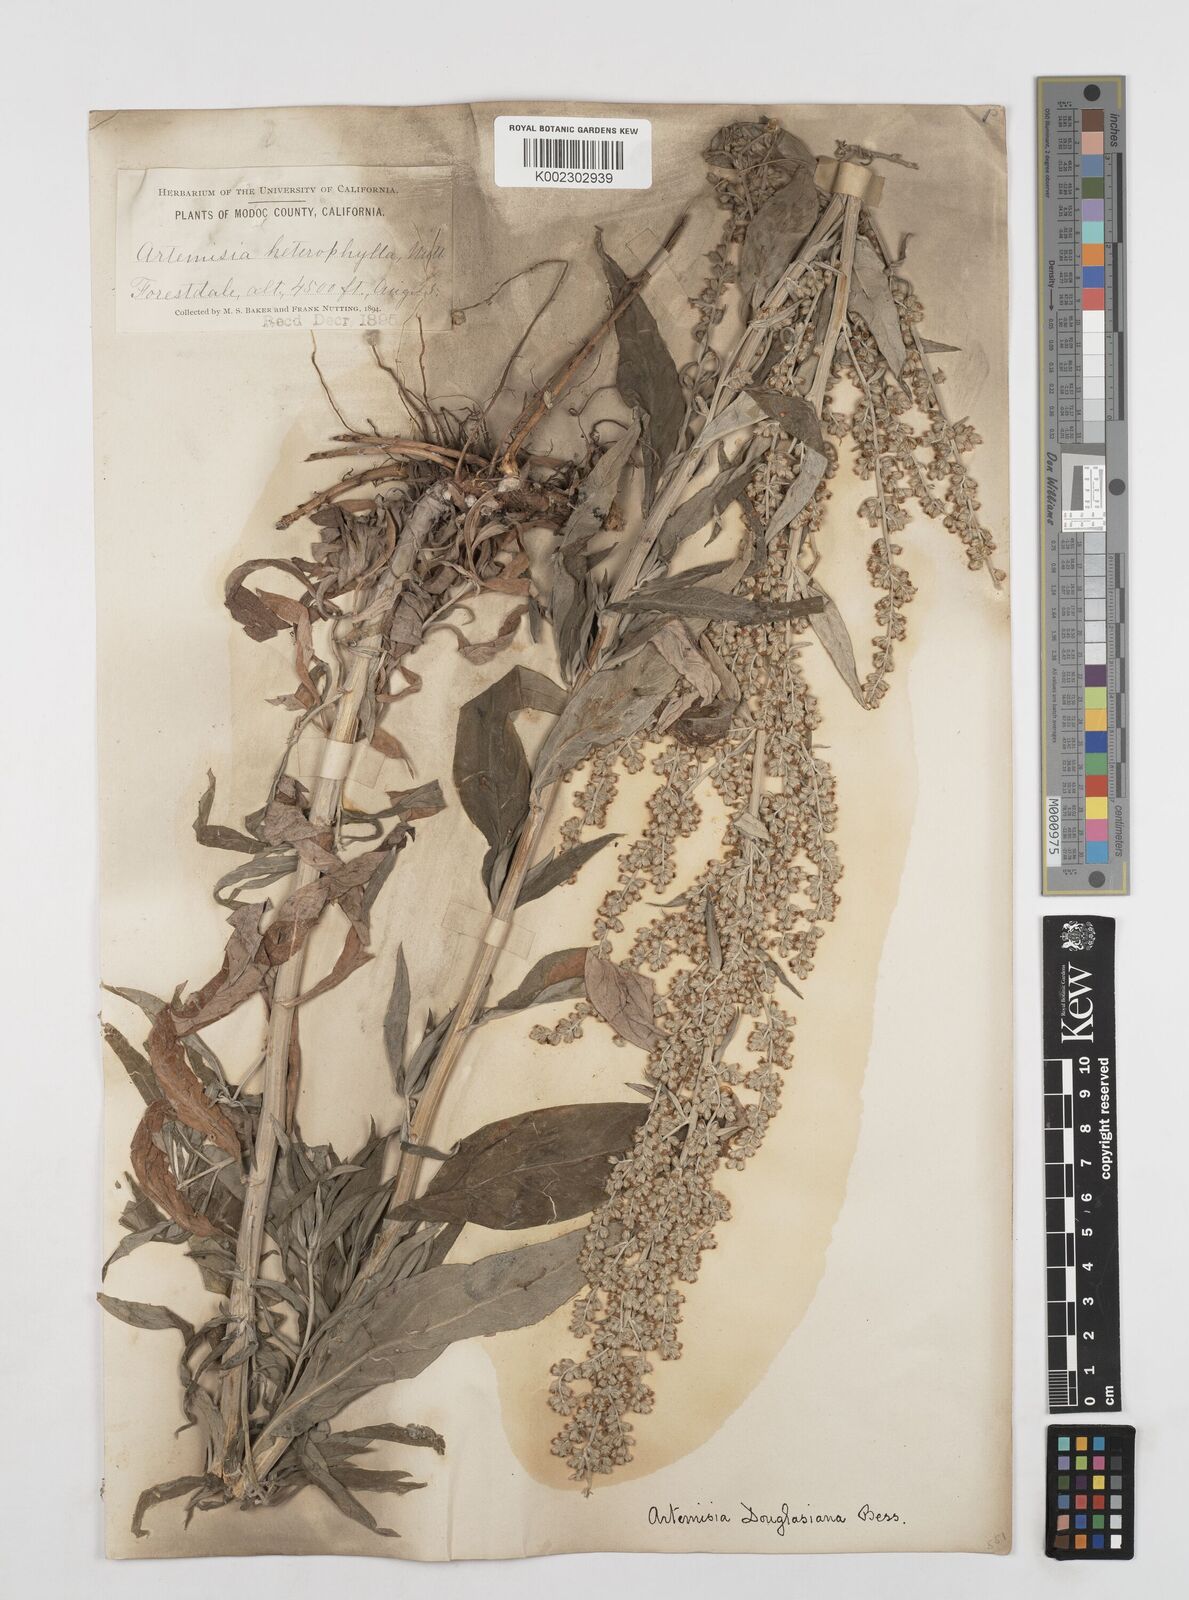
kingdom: Plantae
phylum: Tracheophyta
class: Magnoliopsida
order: Asterales
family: Asteraceae
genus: Artemisia
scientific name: Artemisia douglasiana
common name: Northwest mugwort
